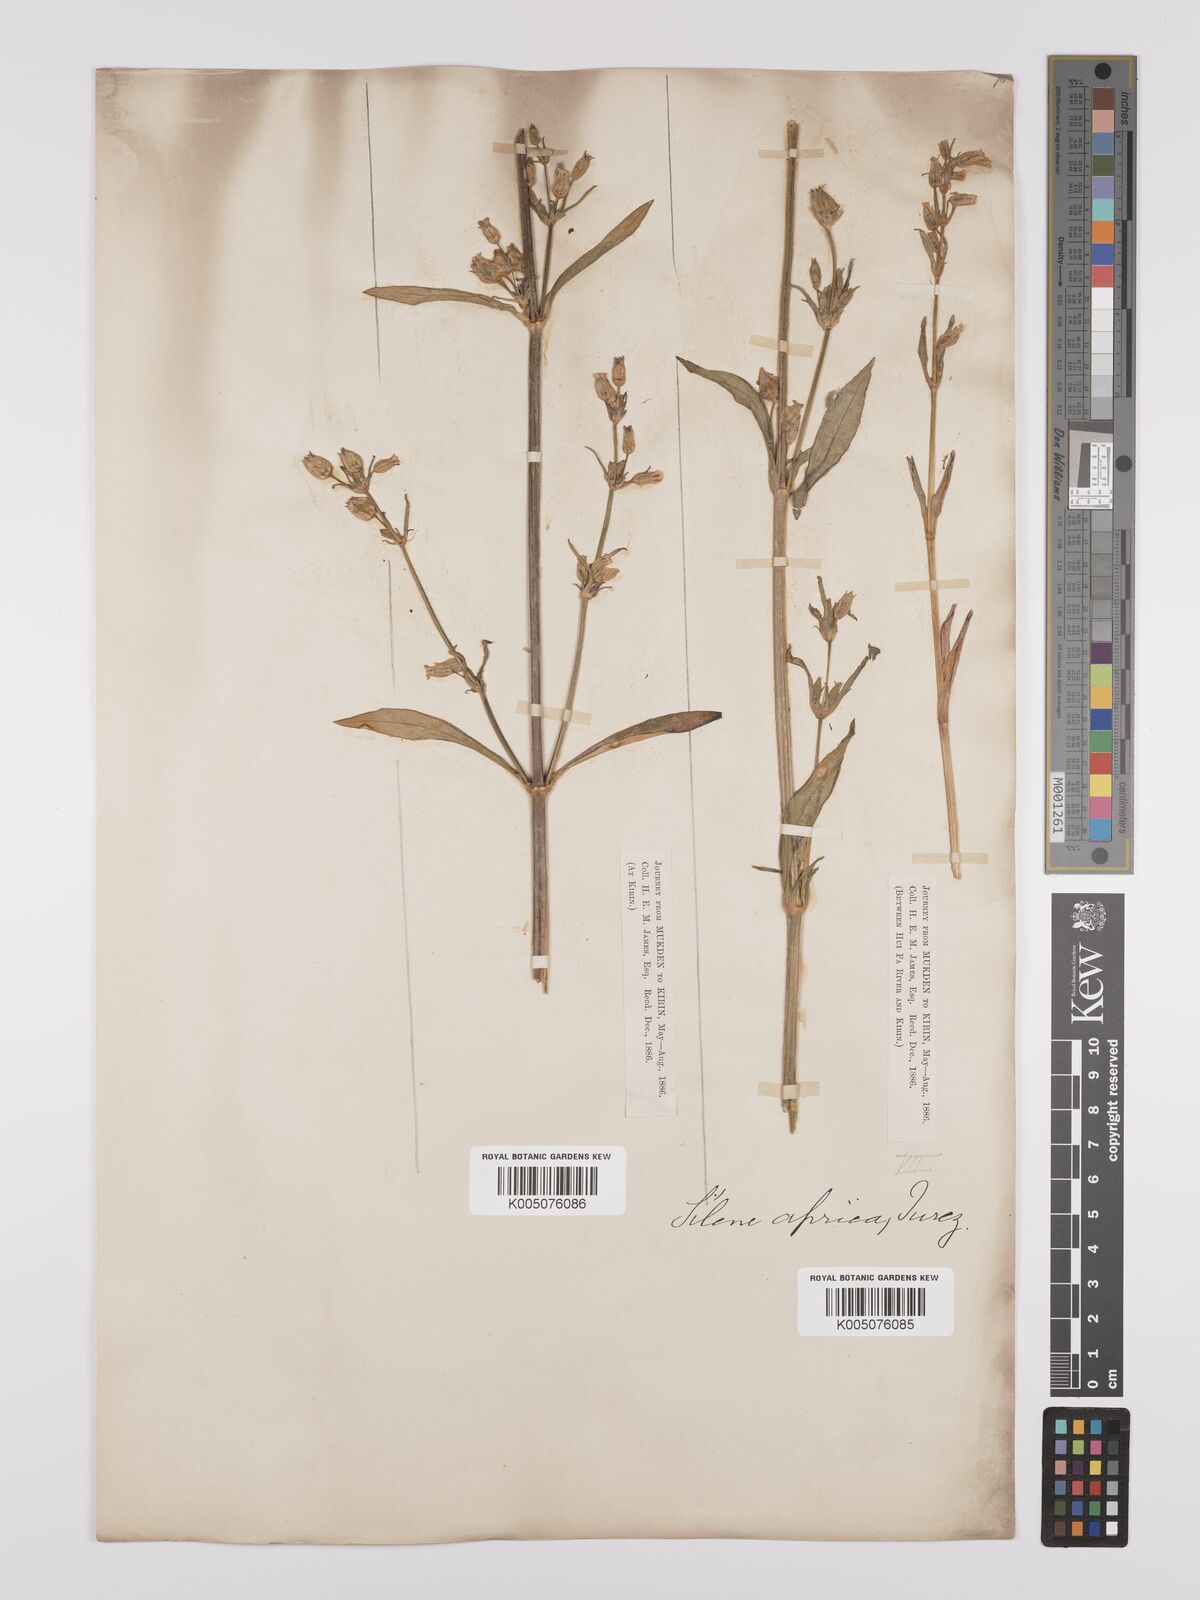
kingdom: Plantae
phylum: Tracheophyta
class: Magnoliopsida
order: Caryophyllales
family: Caryophyllaceae
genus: Silene
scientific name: Silene aprica
